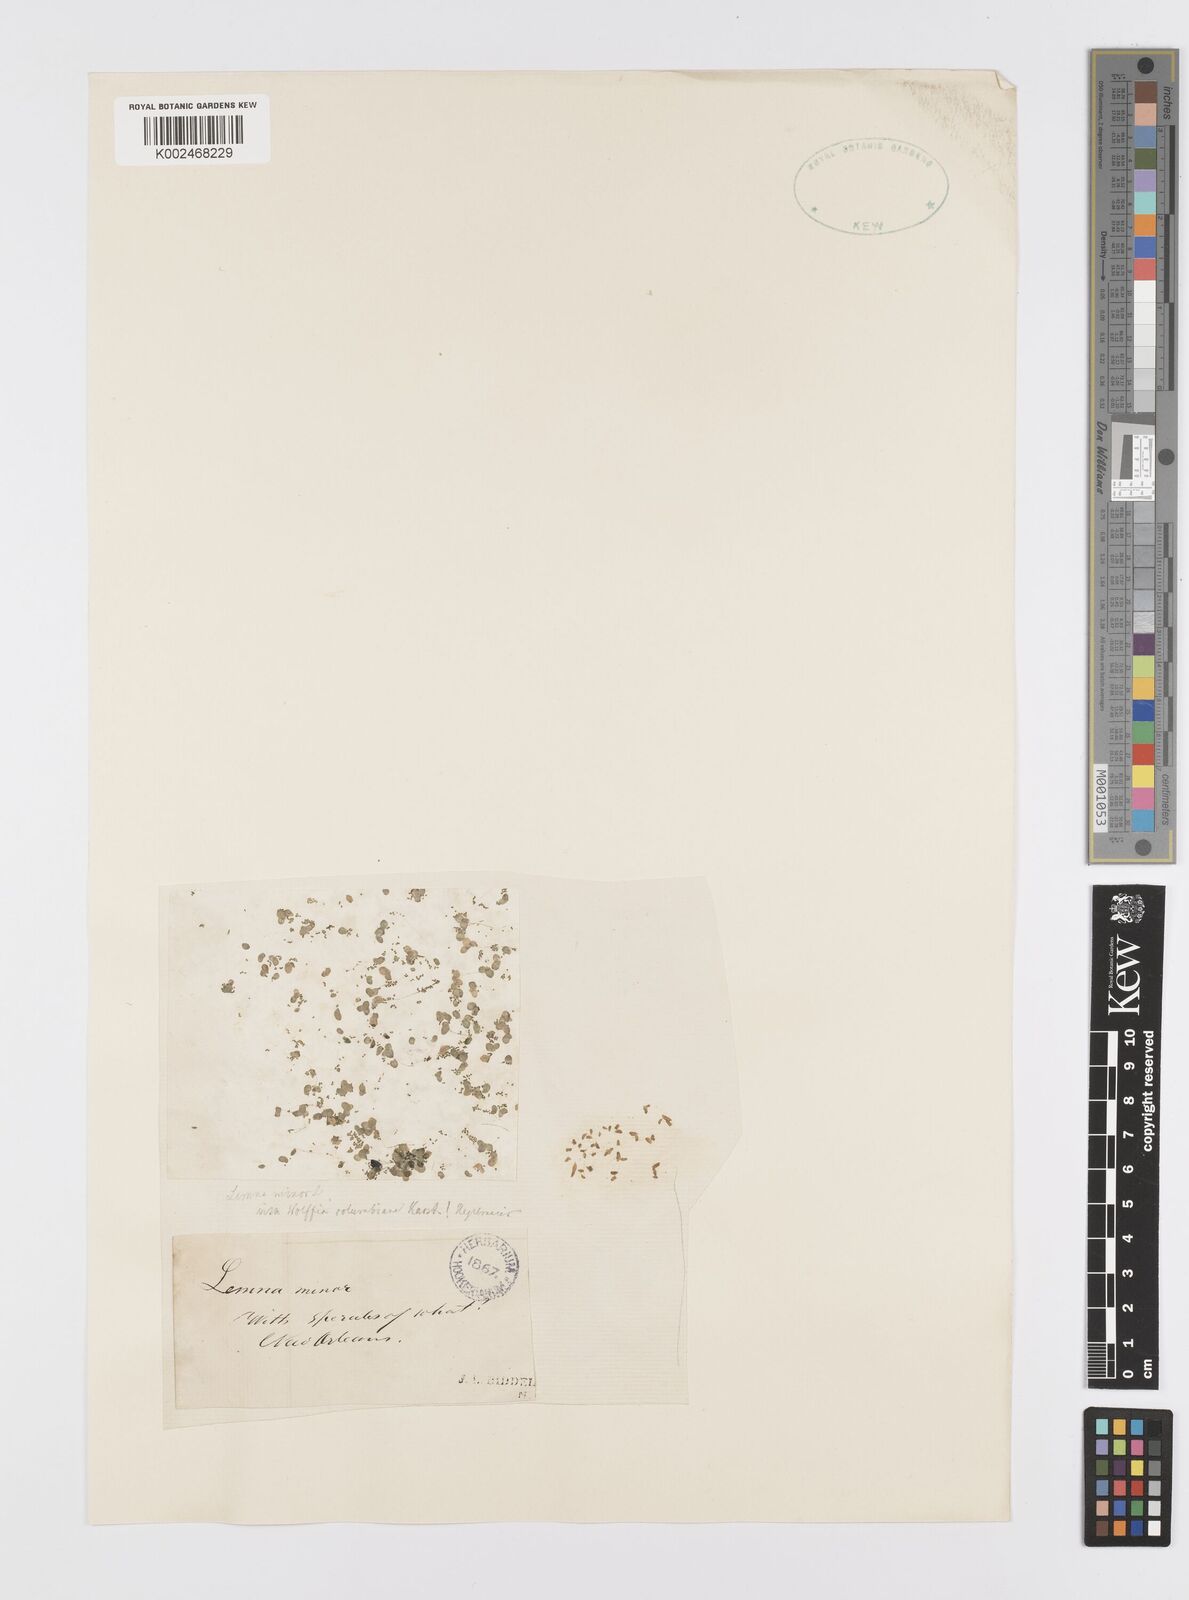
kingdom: Plantae
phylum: Tracheophyta
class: Liliopsida
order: Alismatales
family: Araceae
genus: Lemna
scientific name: Lemna minor
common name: Common duckweed
